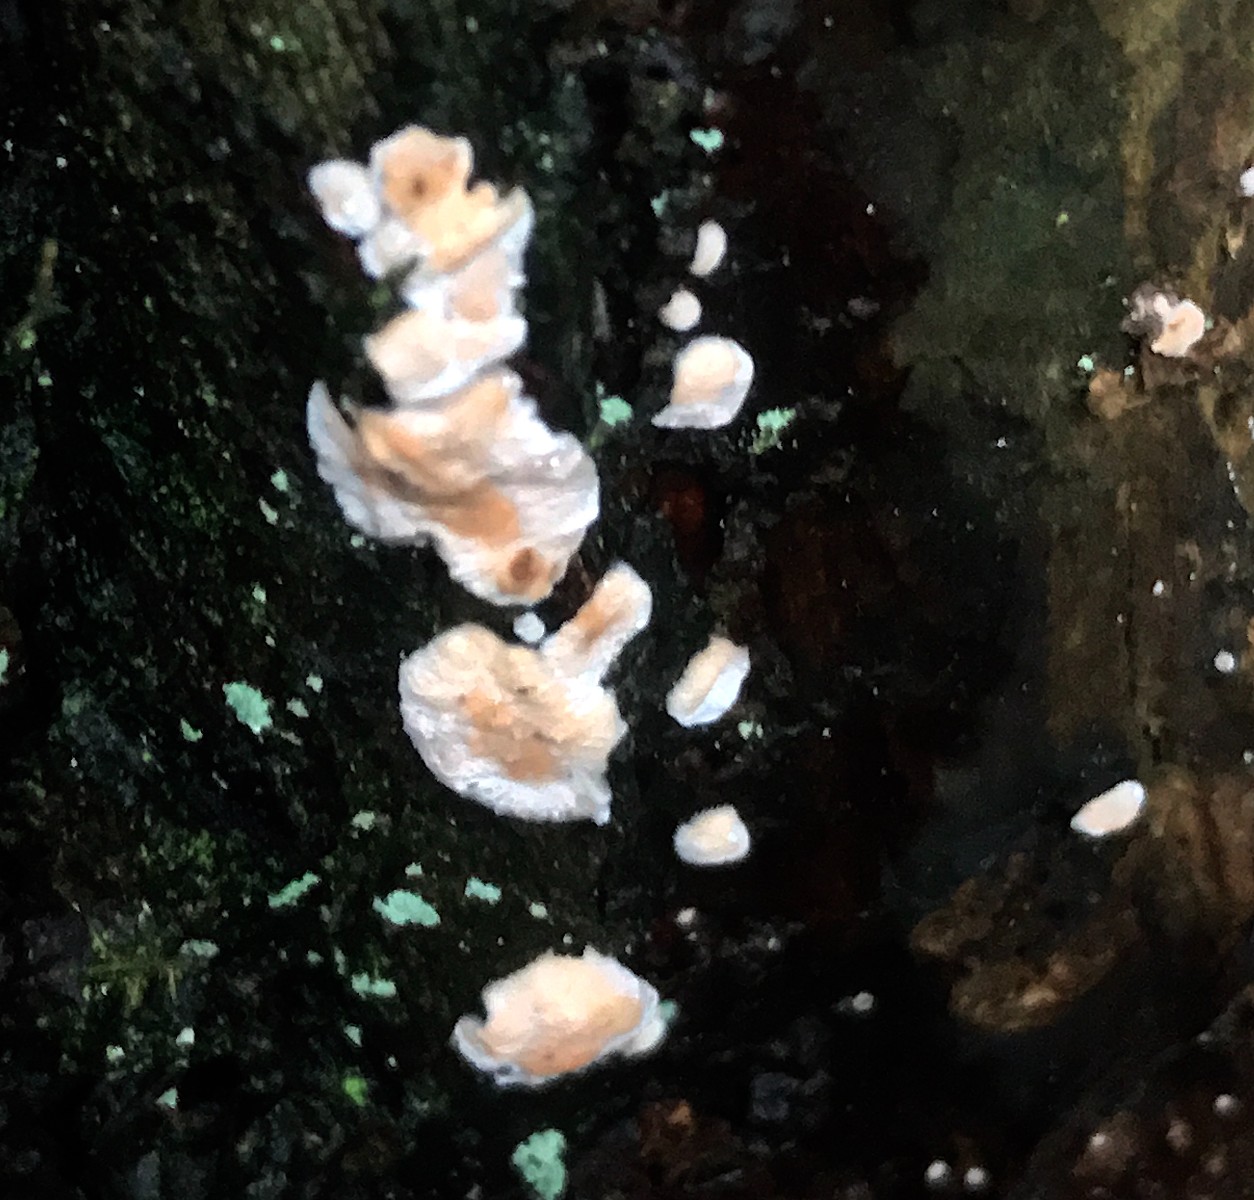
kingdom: Fungi
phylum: Basidiomycota
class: Agaricomycetes
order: Russulales
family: Stereaceae
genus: Stereum
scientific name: Stereum rugosum
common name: rynket lædersvamp
